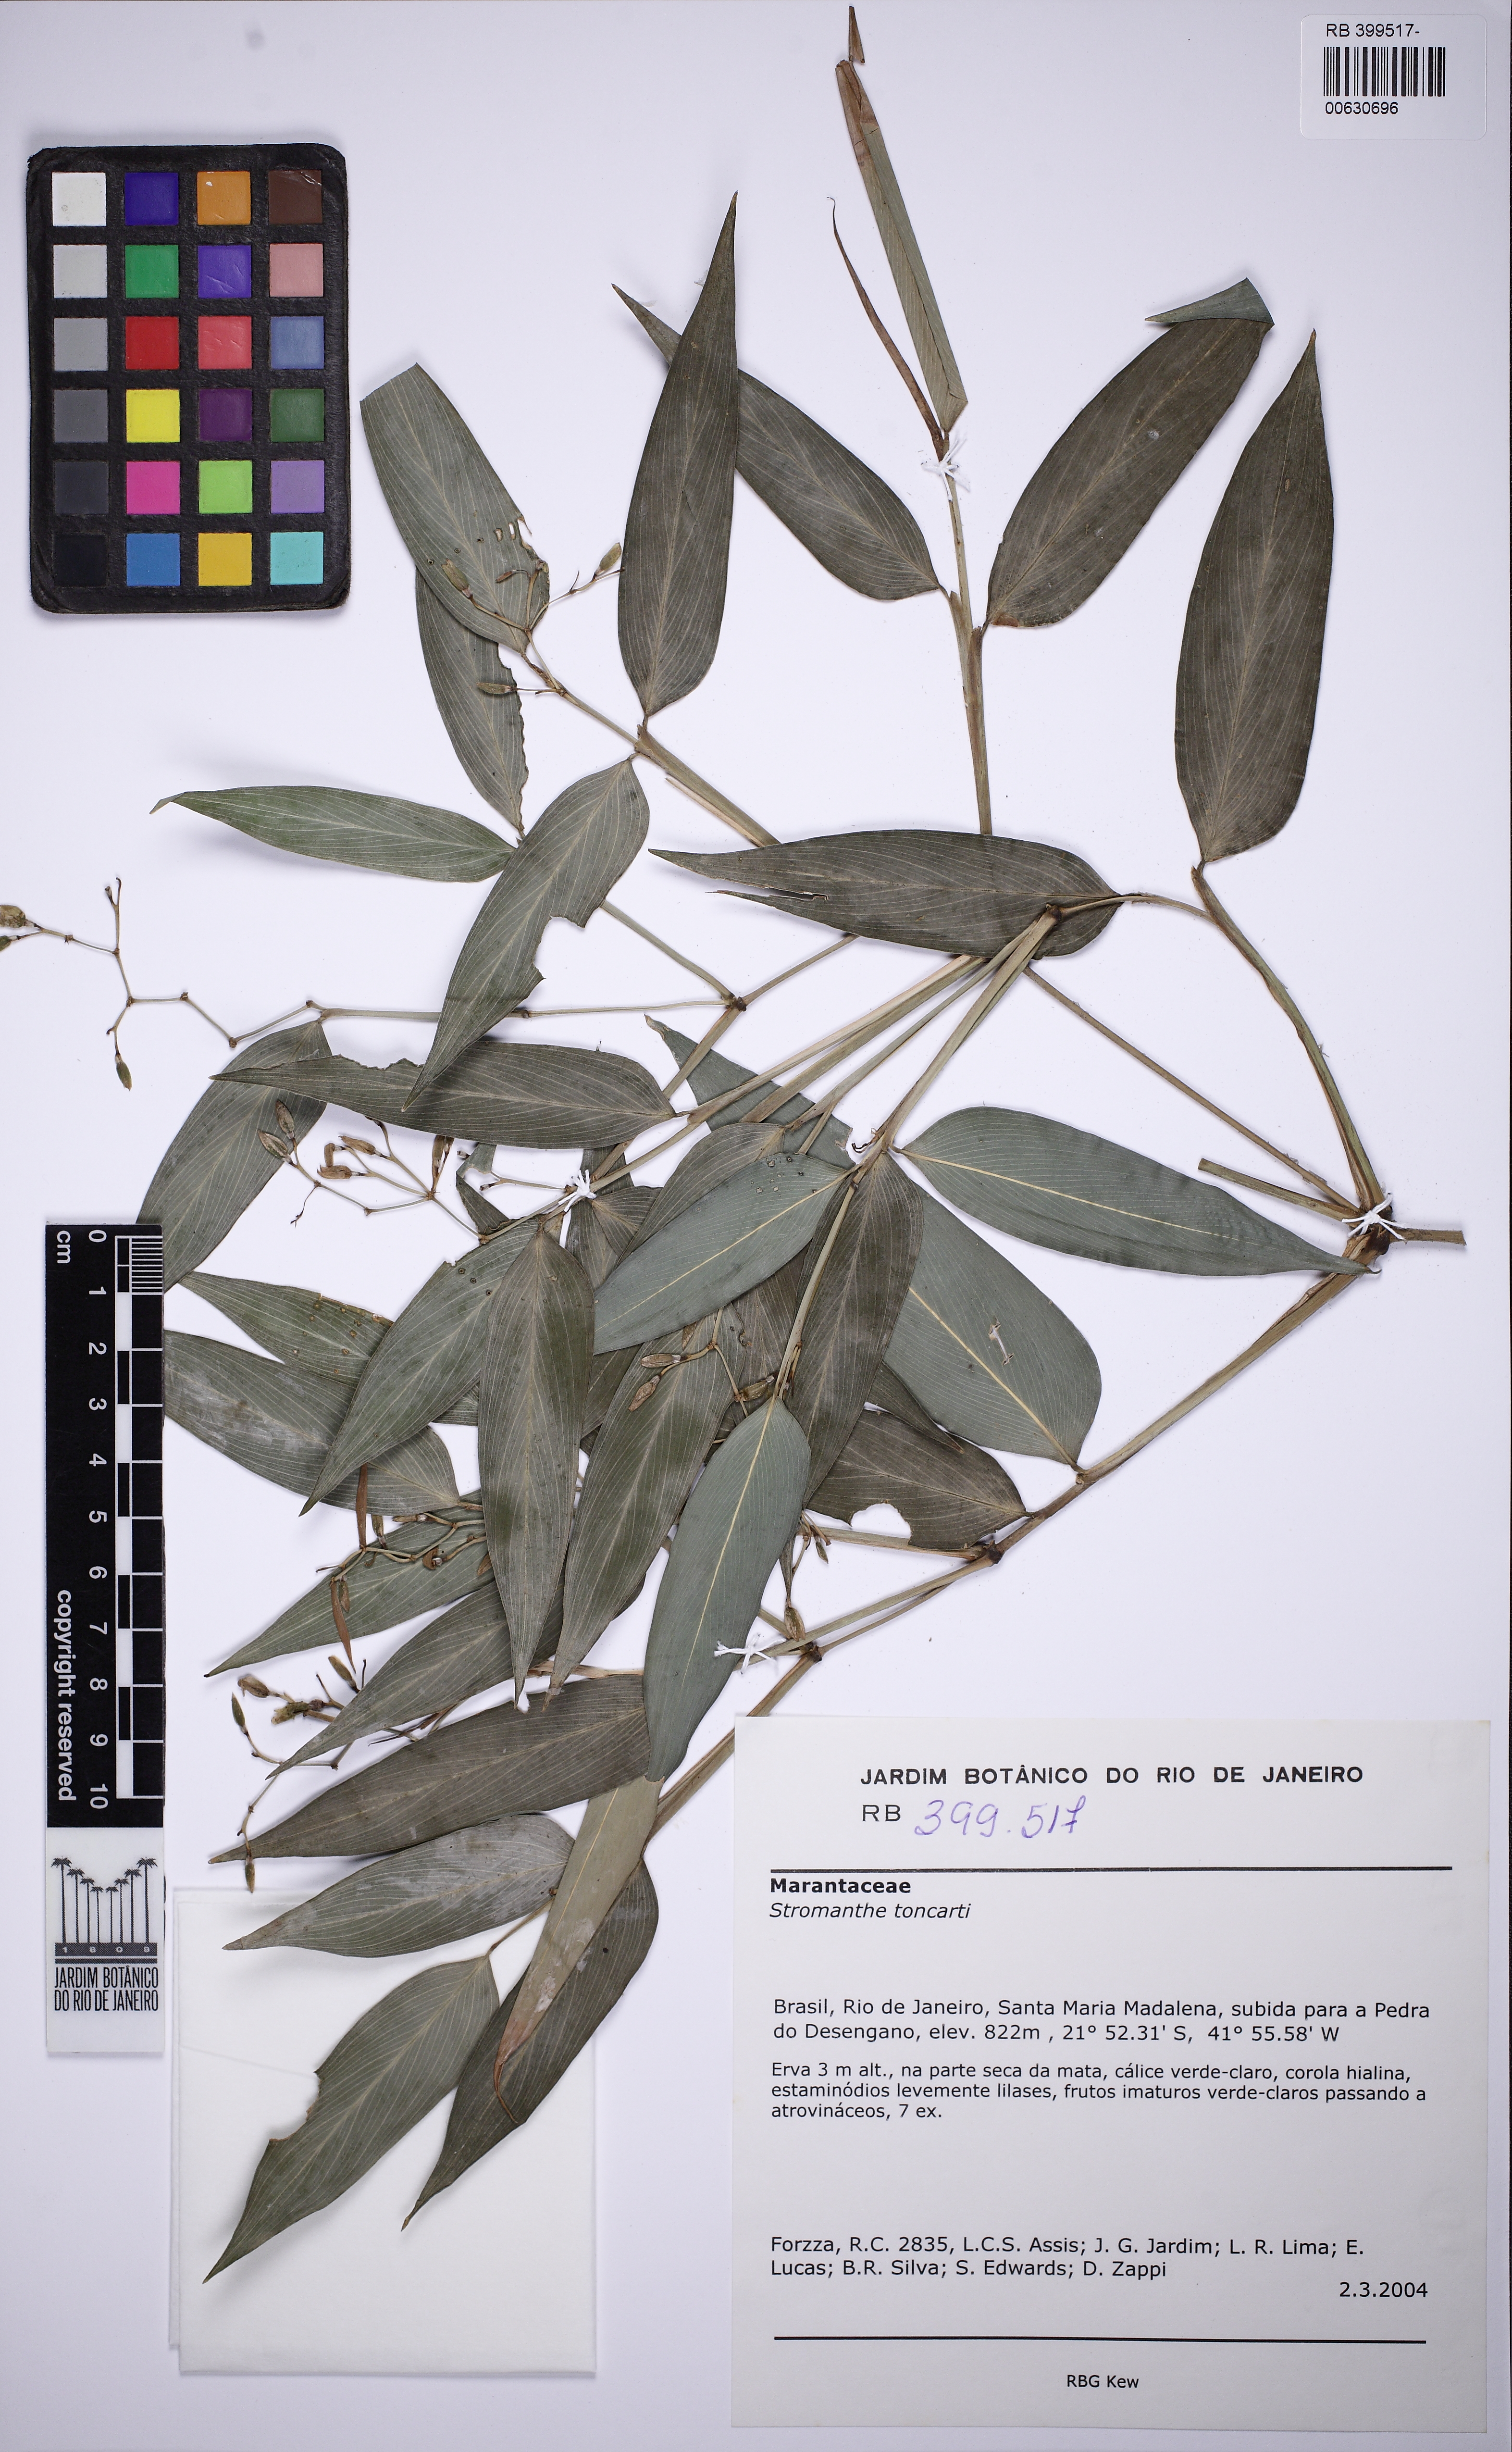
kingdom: Plantae
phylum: Tracheophyta
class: Liliopsida
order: Zingiberales
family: Marantaceae
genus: Stromanthe
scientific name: Stromanthe tonckat
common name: Stromanthe
